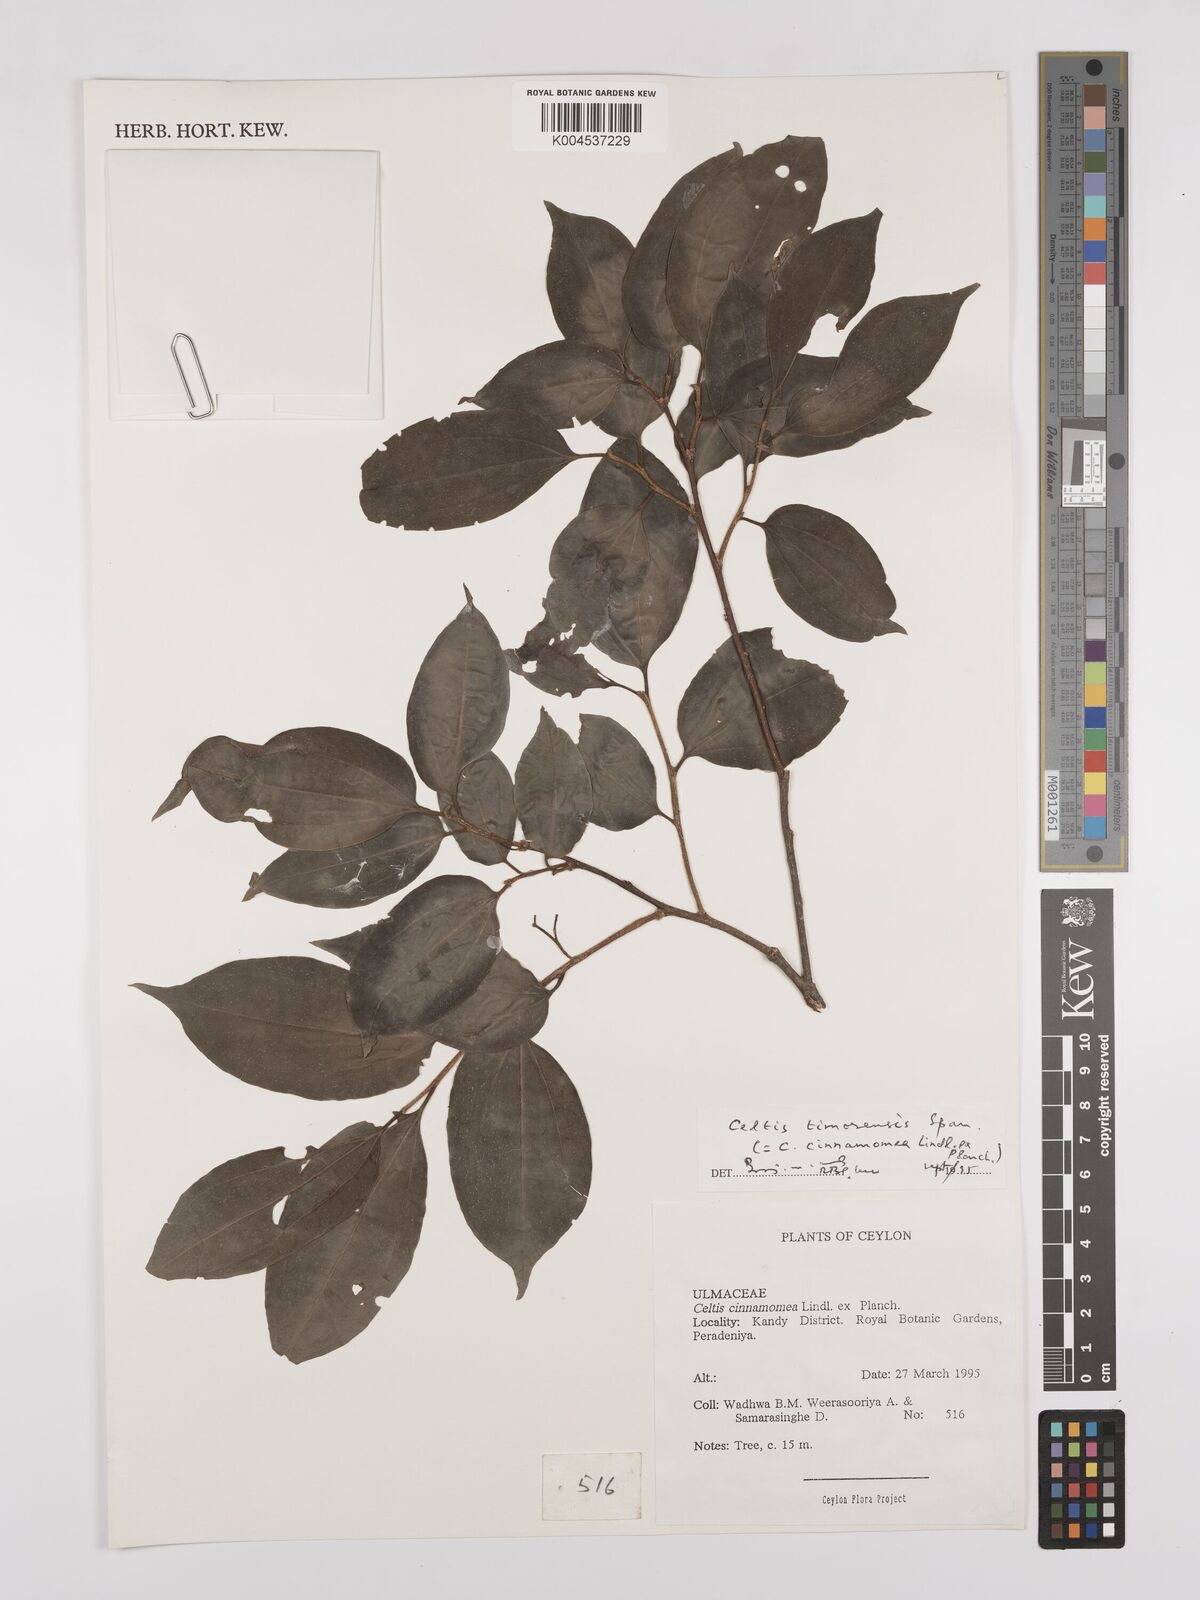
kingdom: Plantae
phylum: Tracheophyta
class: Magnoliopsida
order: Rosales
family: Cannabaceae
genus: Celtis
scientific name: Celtis timorensis
